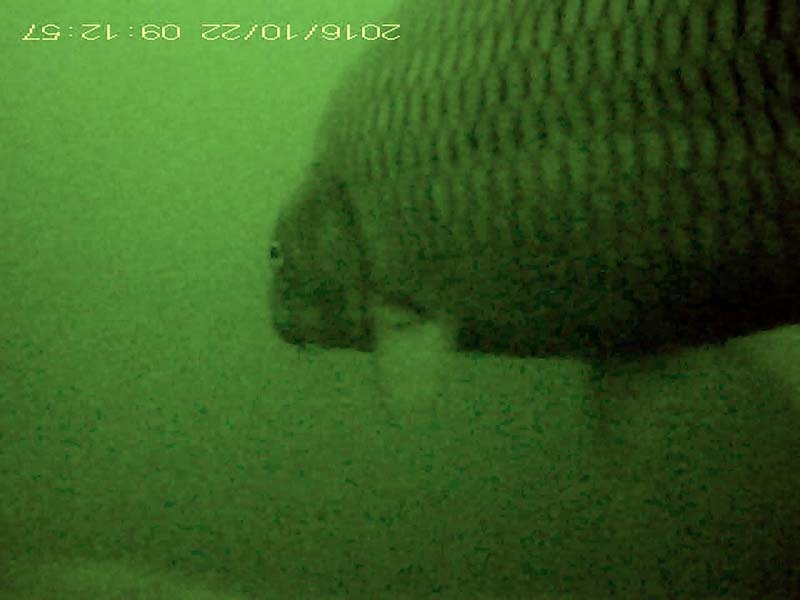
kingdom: Animalia
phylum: Chordata
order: Cypriniformes
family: Cyprinidae
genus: Cyprinus
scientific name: Cyprinus carpio
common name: コイ
